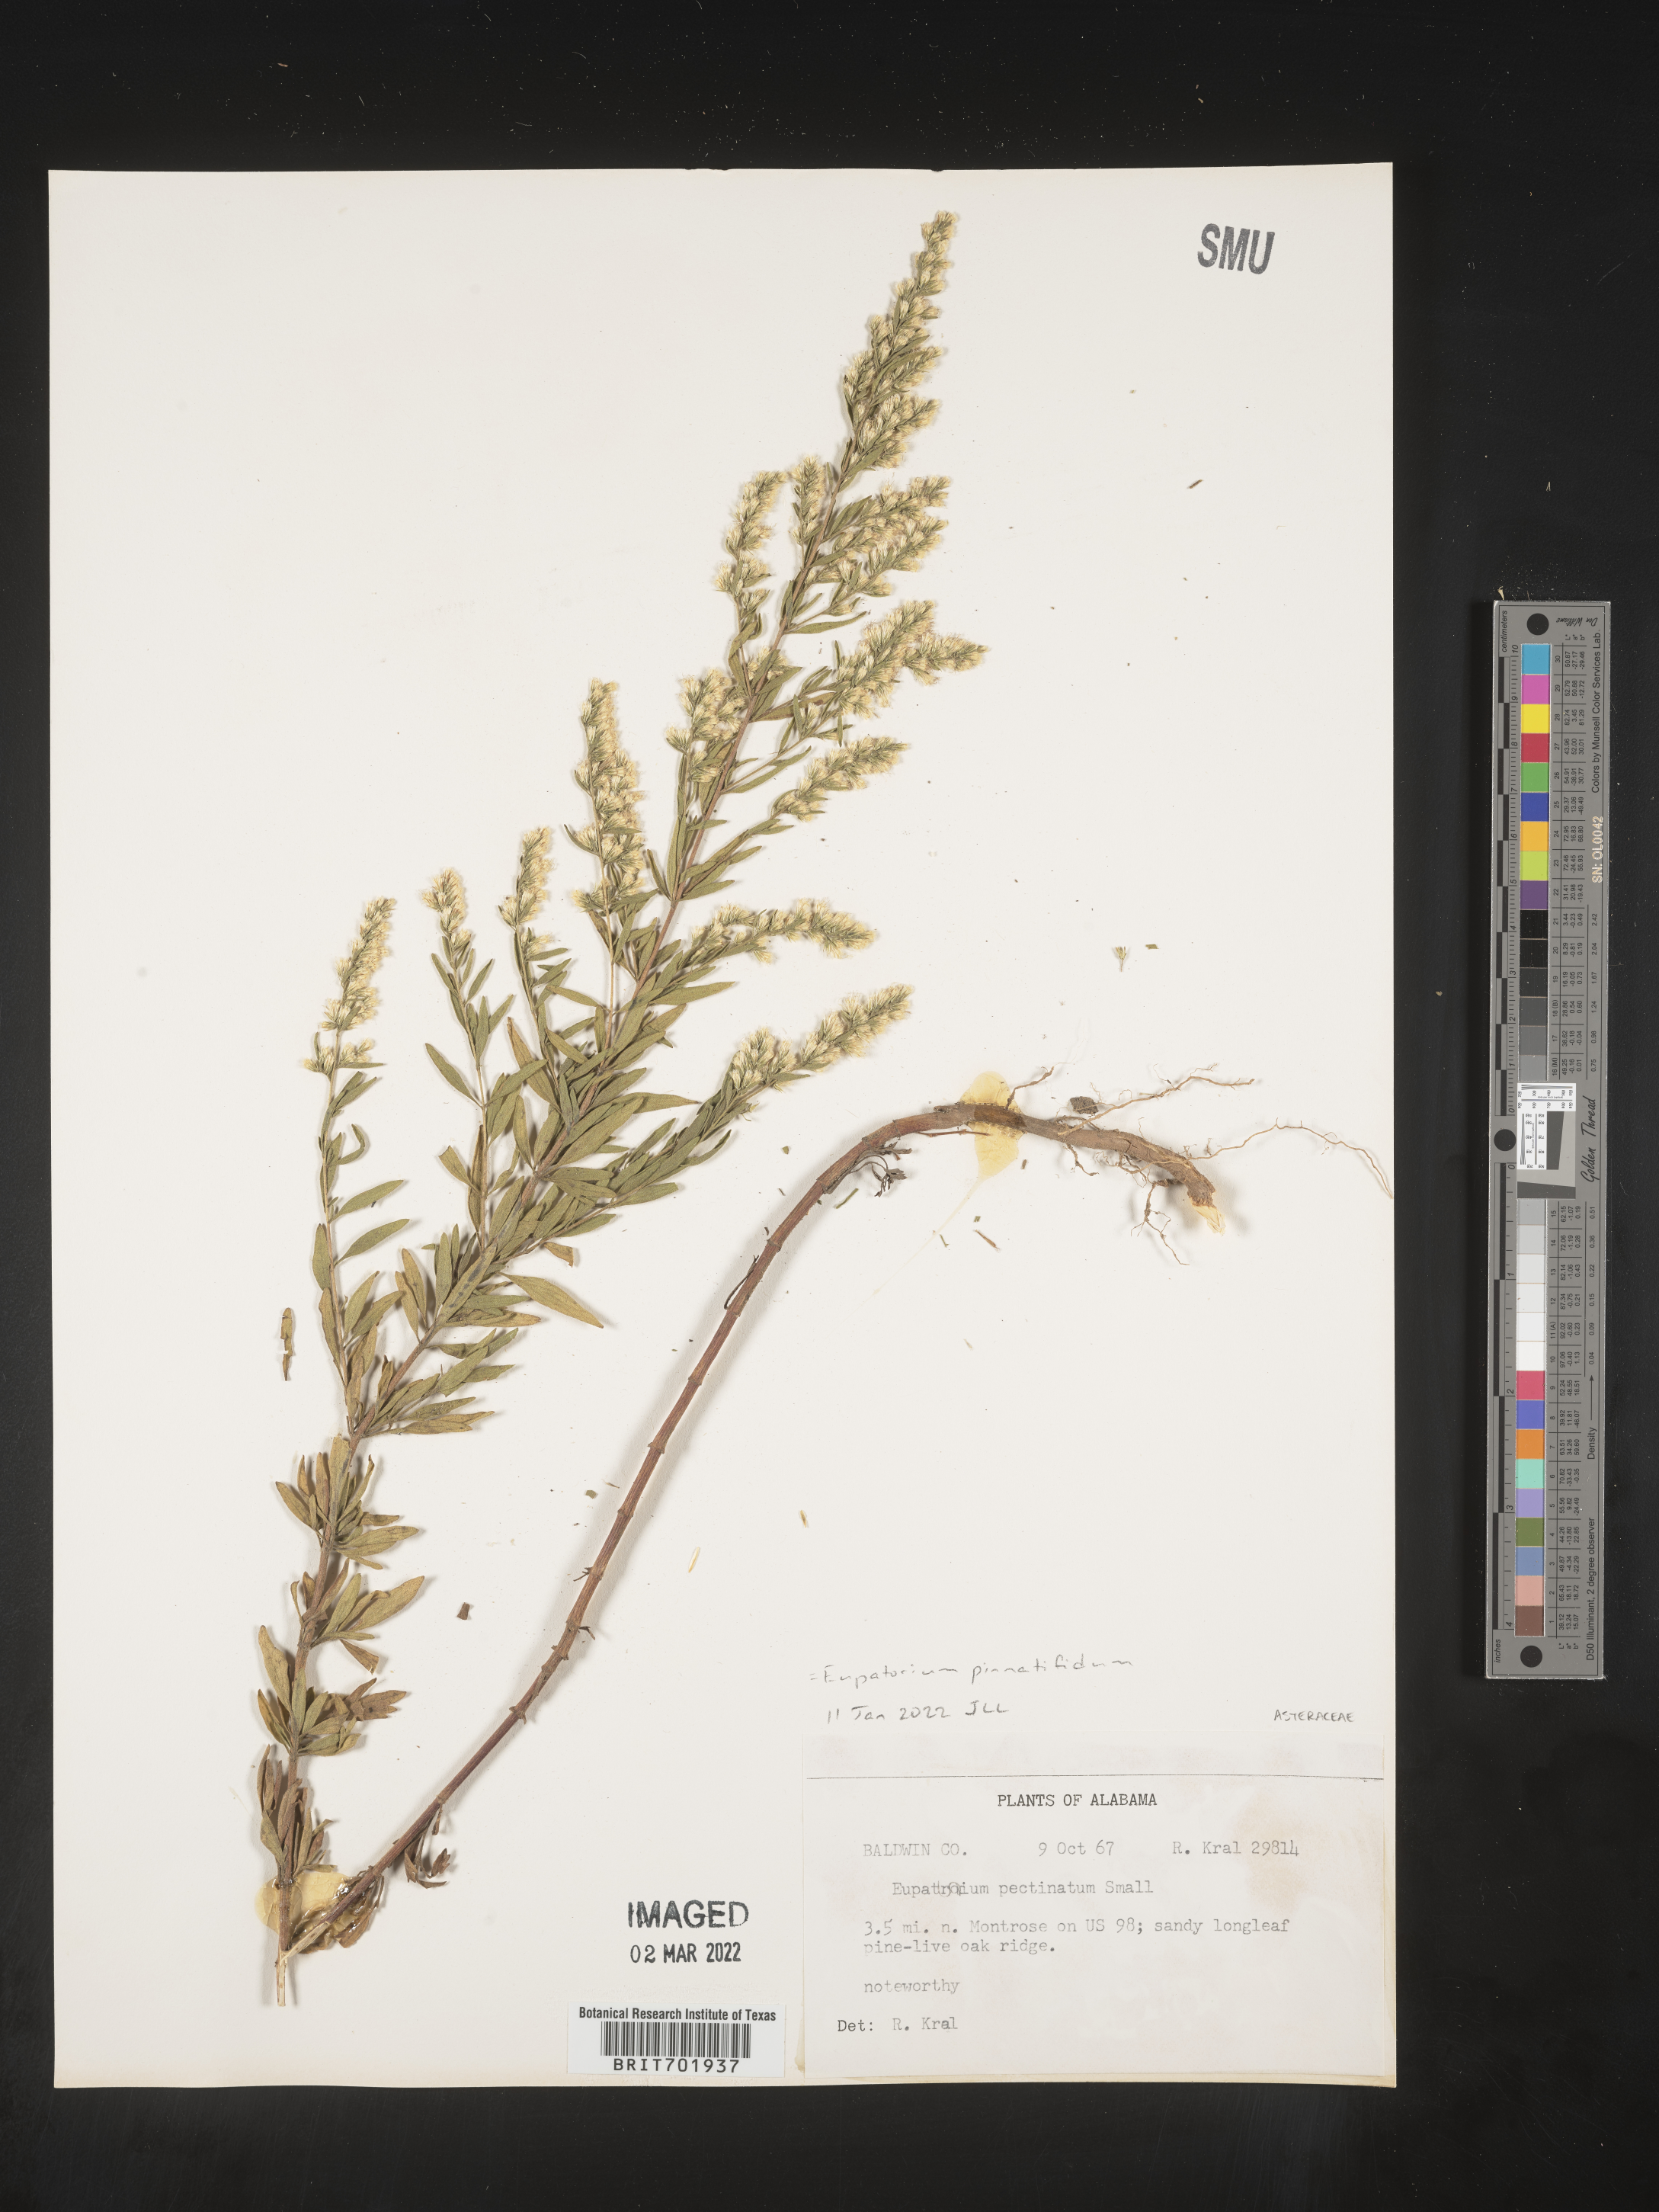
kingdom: Plantae
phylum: Tracheophyta
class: Magnoliopsida
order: Asterales
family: Asteraceae
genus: Eupatorium
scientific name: Eupatorium pinnatifidum
